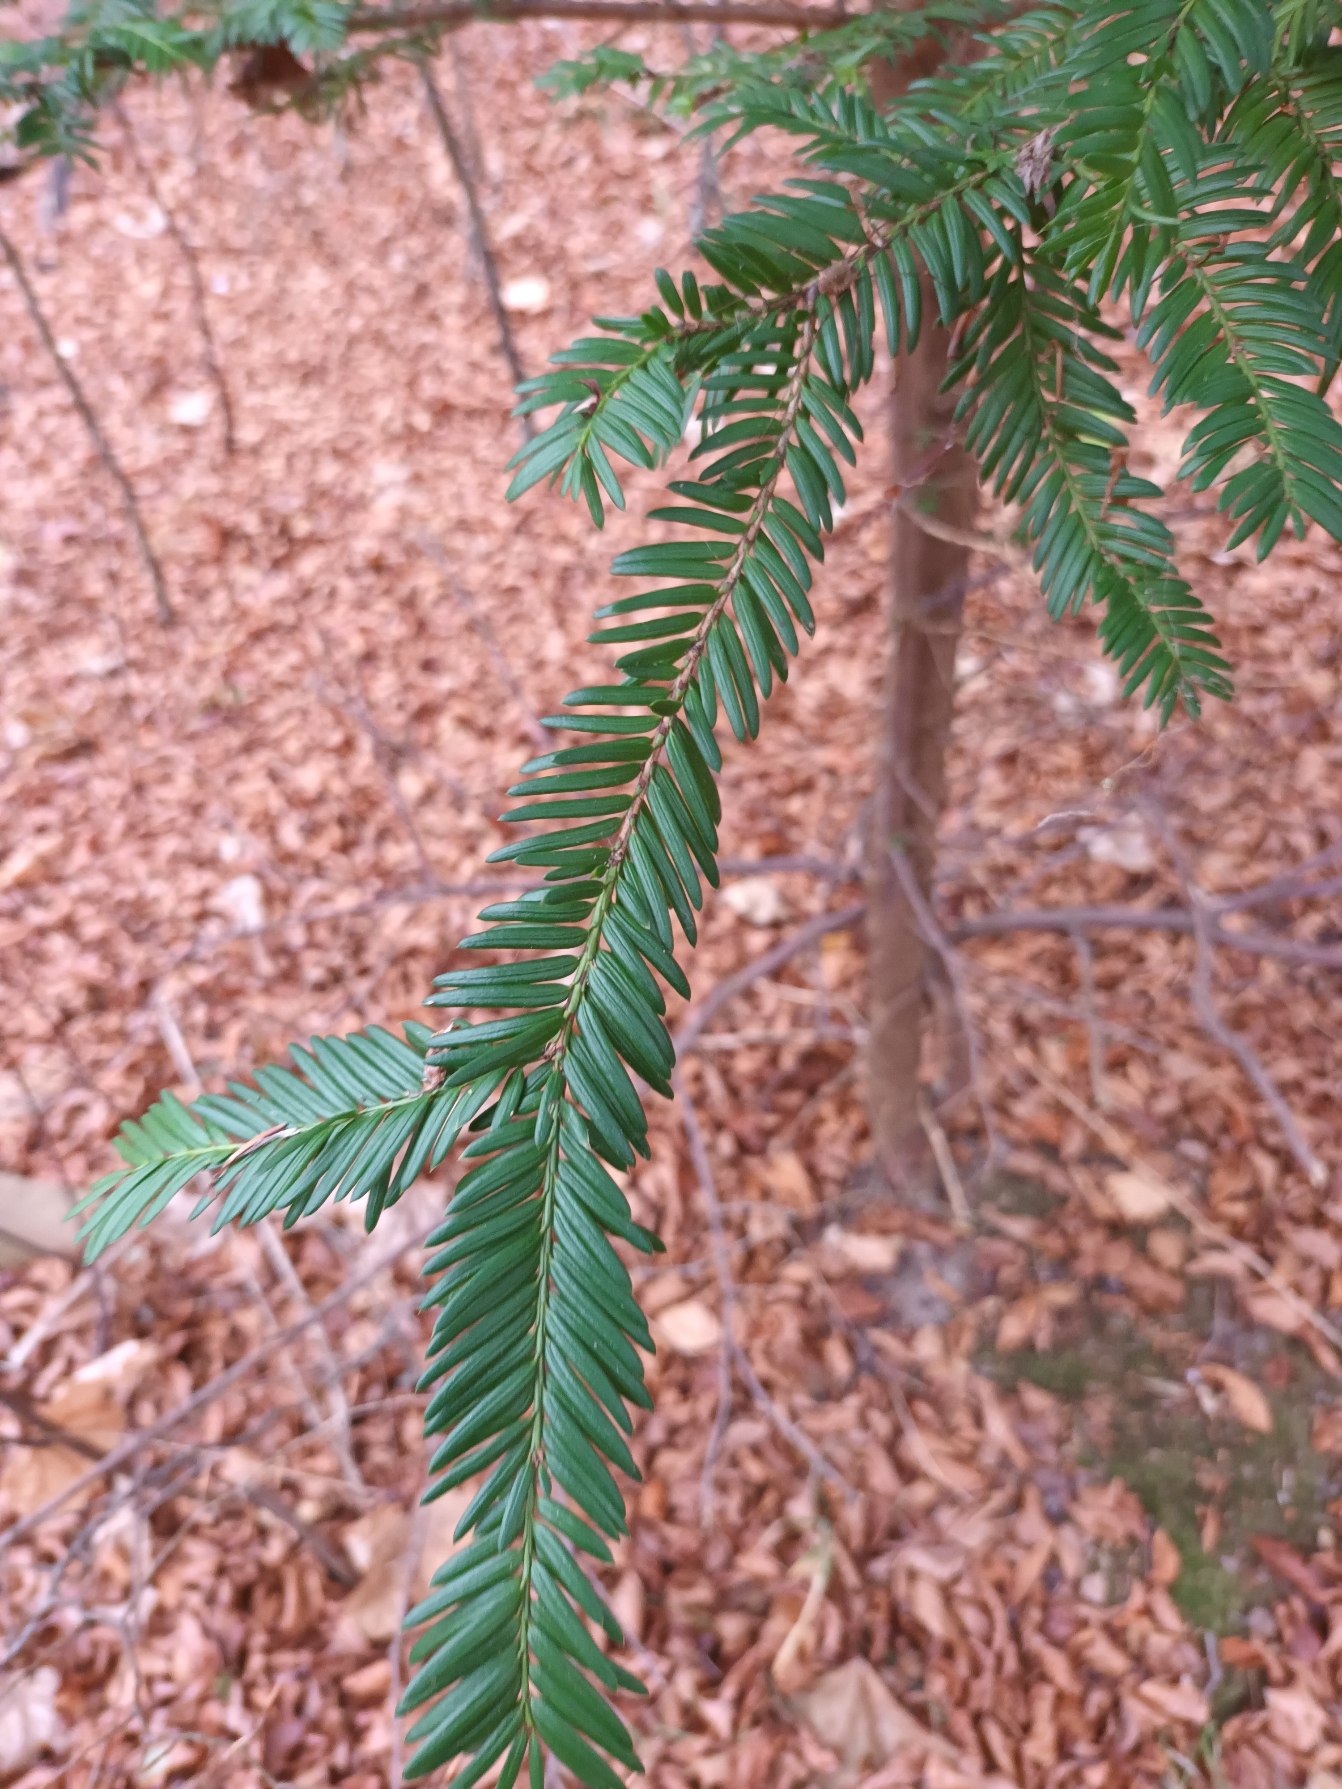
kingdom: Plantae
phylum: Tracheophyta
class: Pinopsida
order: Pinales
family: Taxaceae
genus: Taxus
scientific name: Taxus baccata
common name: Almindelig taks
